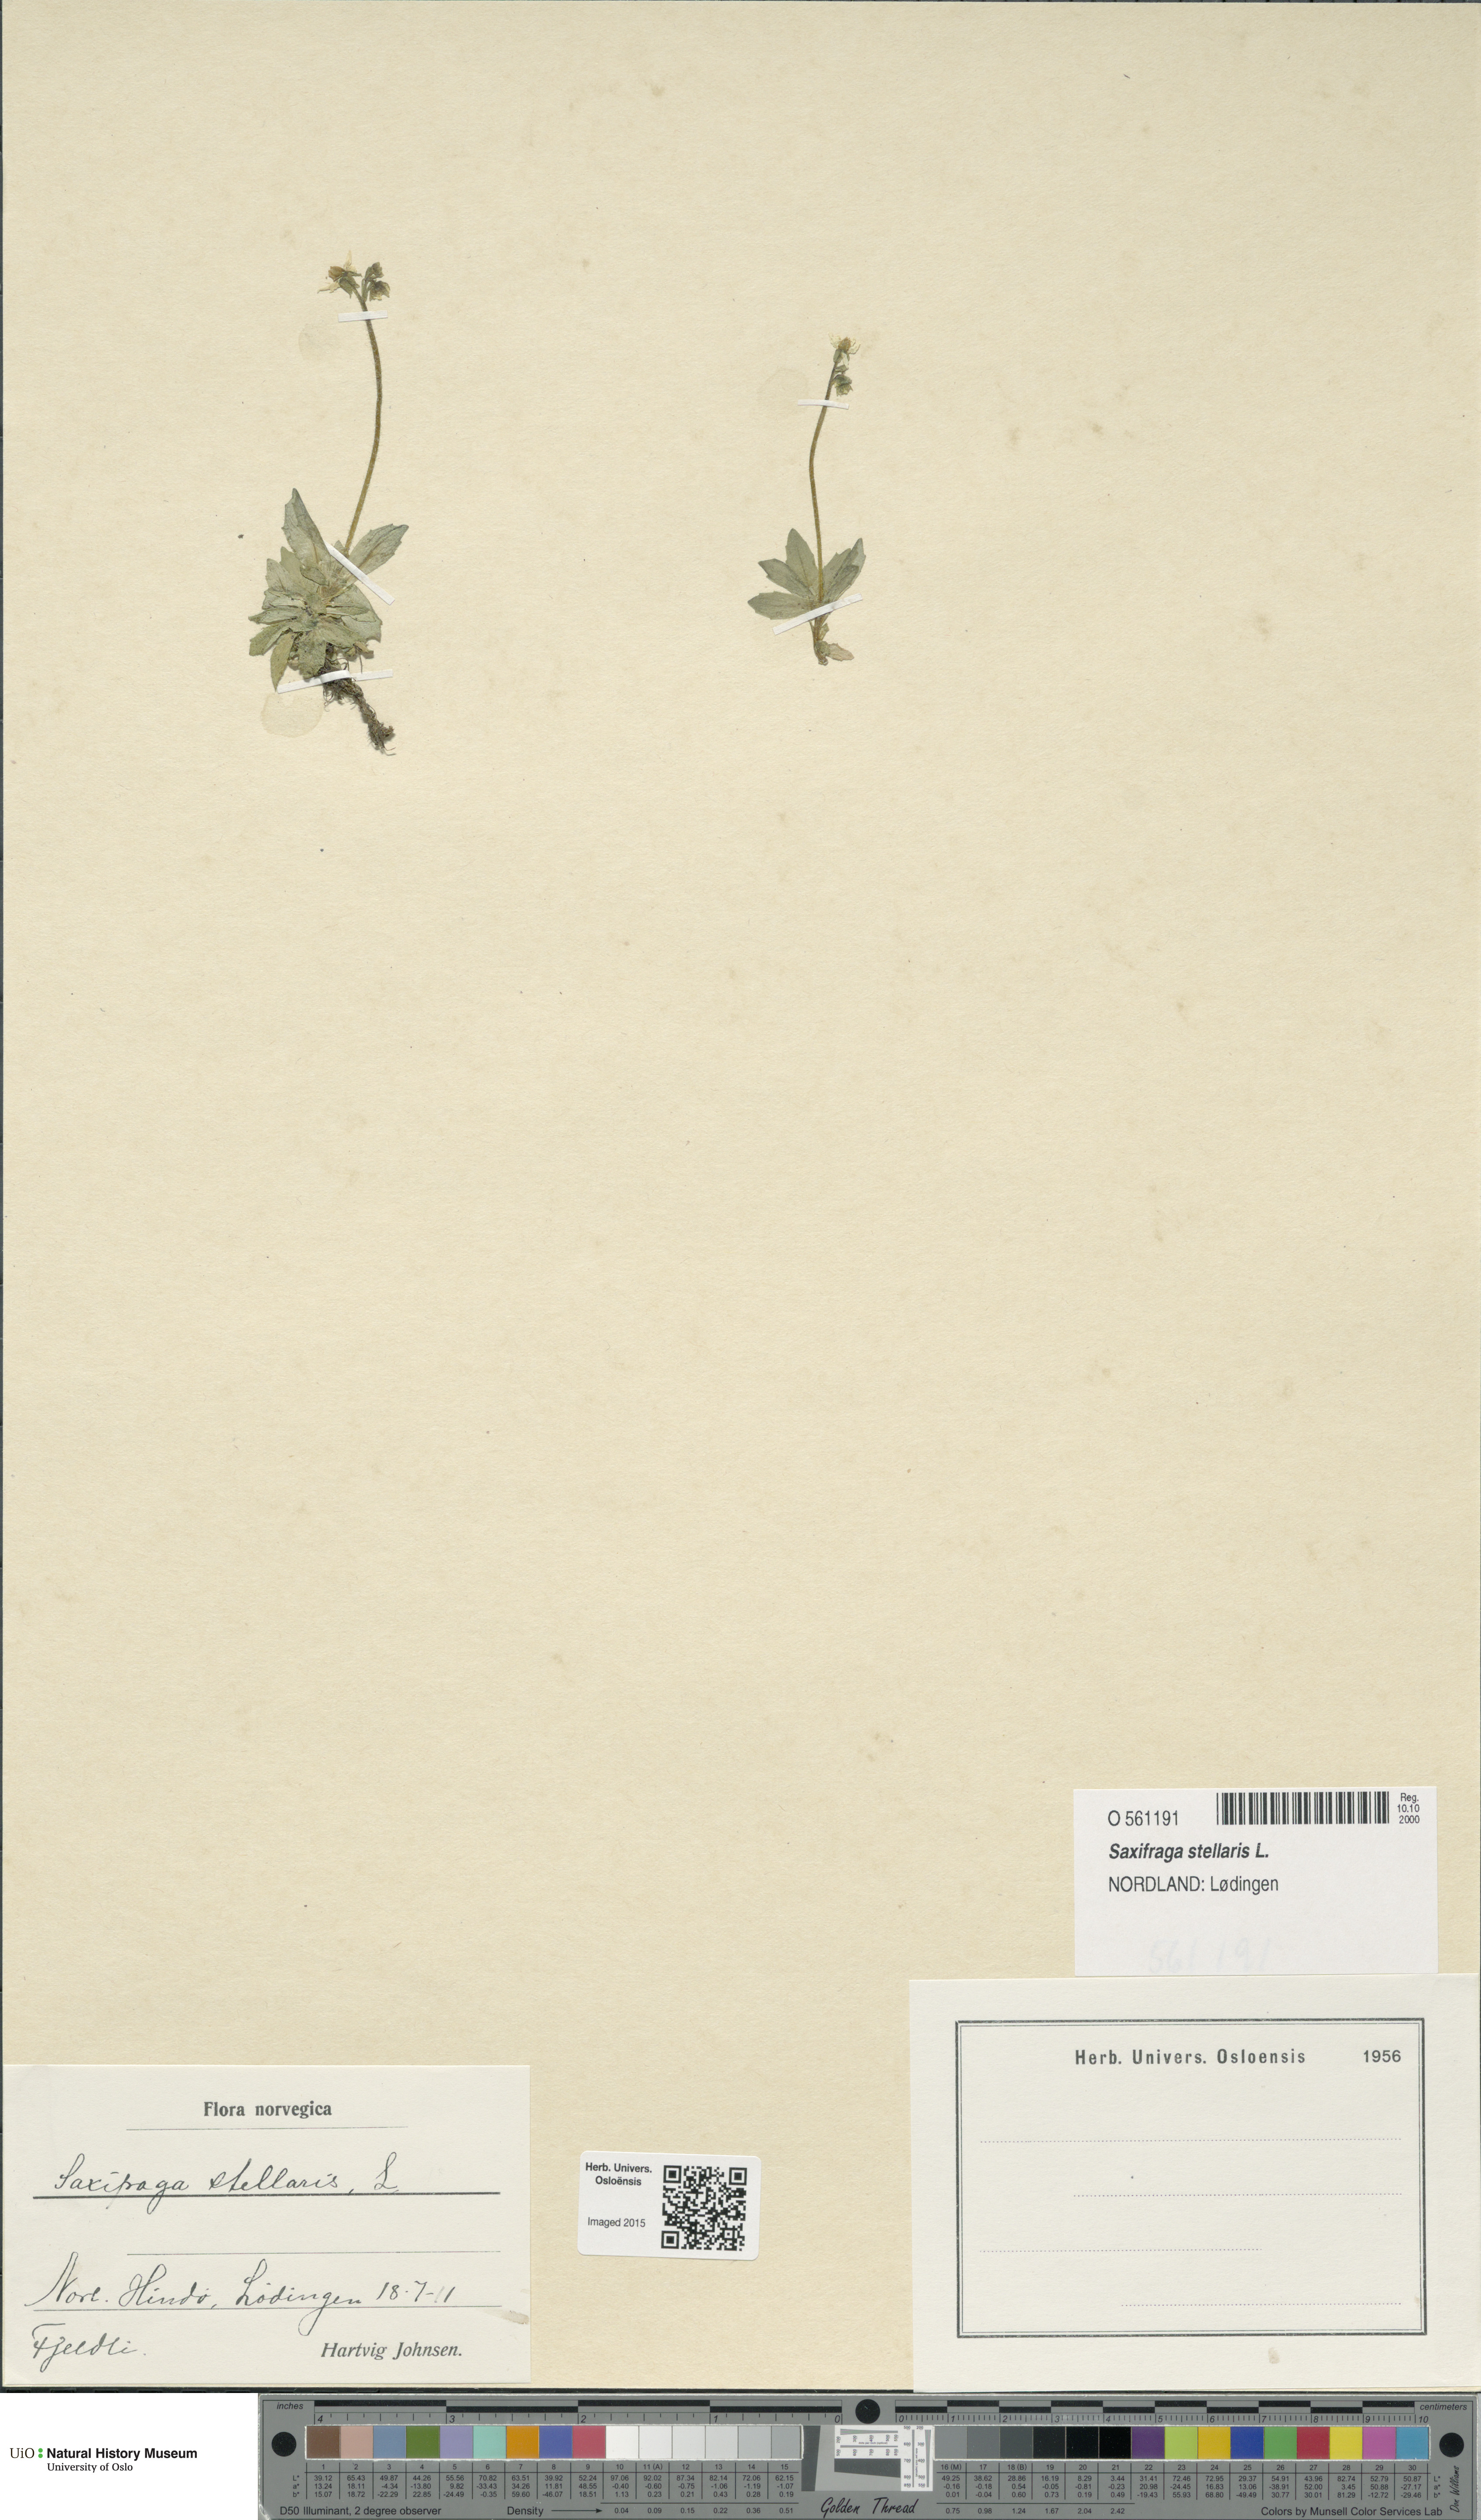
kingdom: Plantae
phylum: Tracheophyta
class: Magnoliopsida
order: Saxifragales
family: Saxifragaceae
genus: Micranthes
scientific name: Micranthes stellaris
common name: Starry saxifrage
